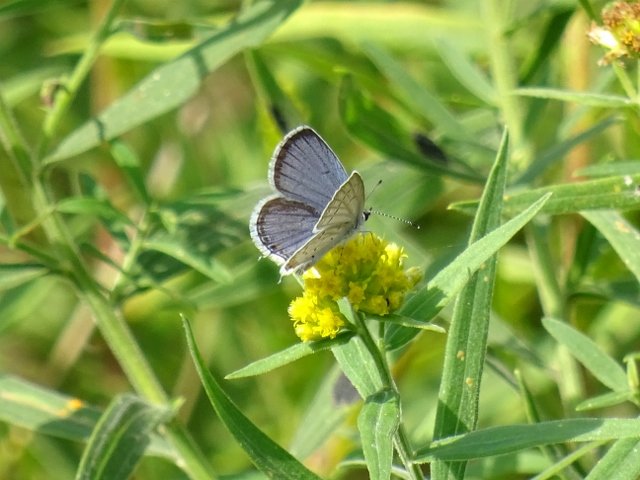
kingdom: Animalia
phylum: Arthropoda
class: Insecta
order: Lepidoptera
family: Lycaenidae
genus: Elkalyce
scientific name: Elkalyce comyntas
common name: Eastern Tailed-Blue
